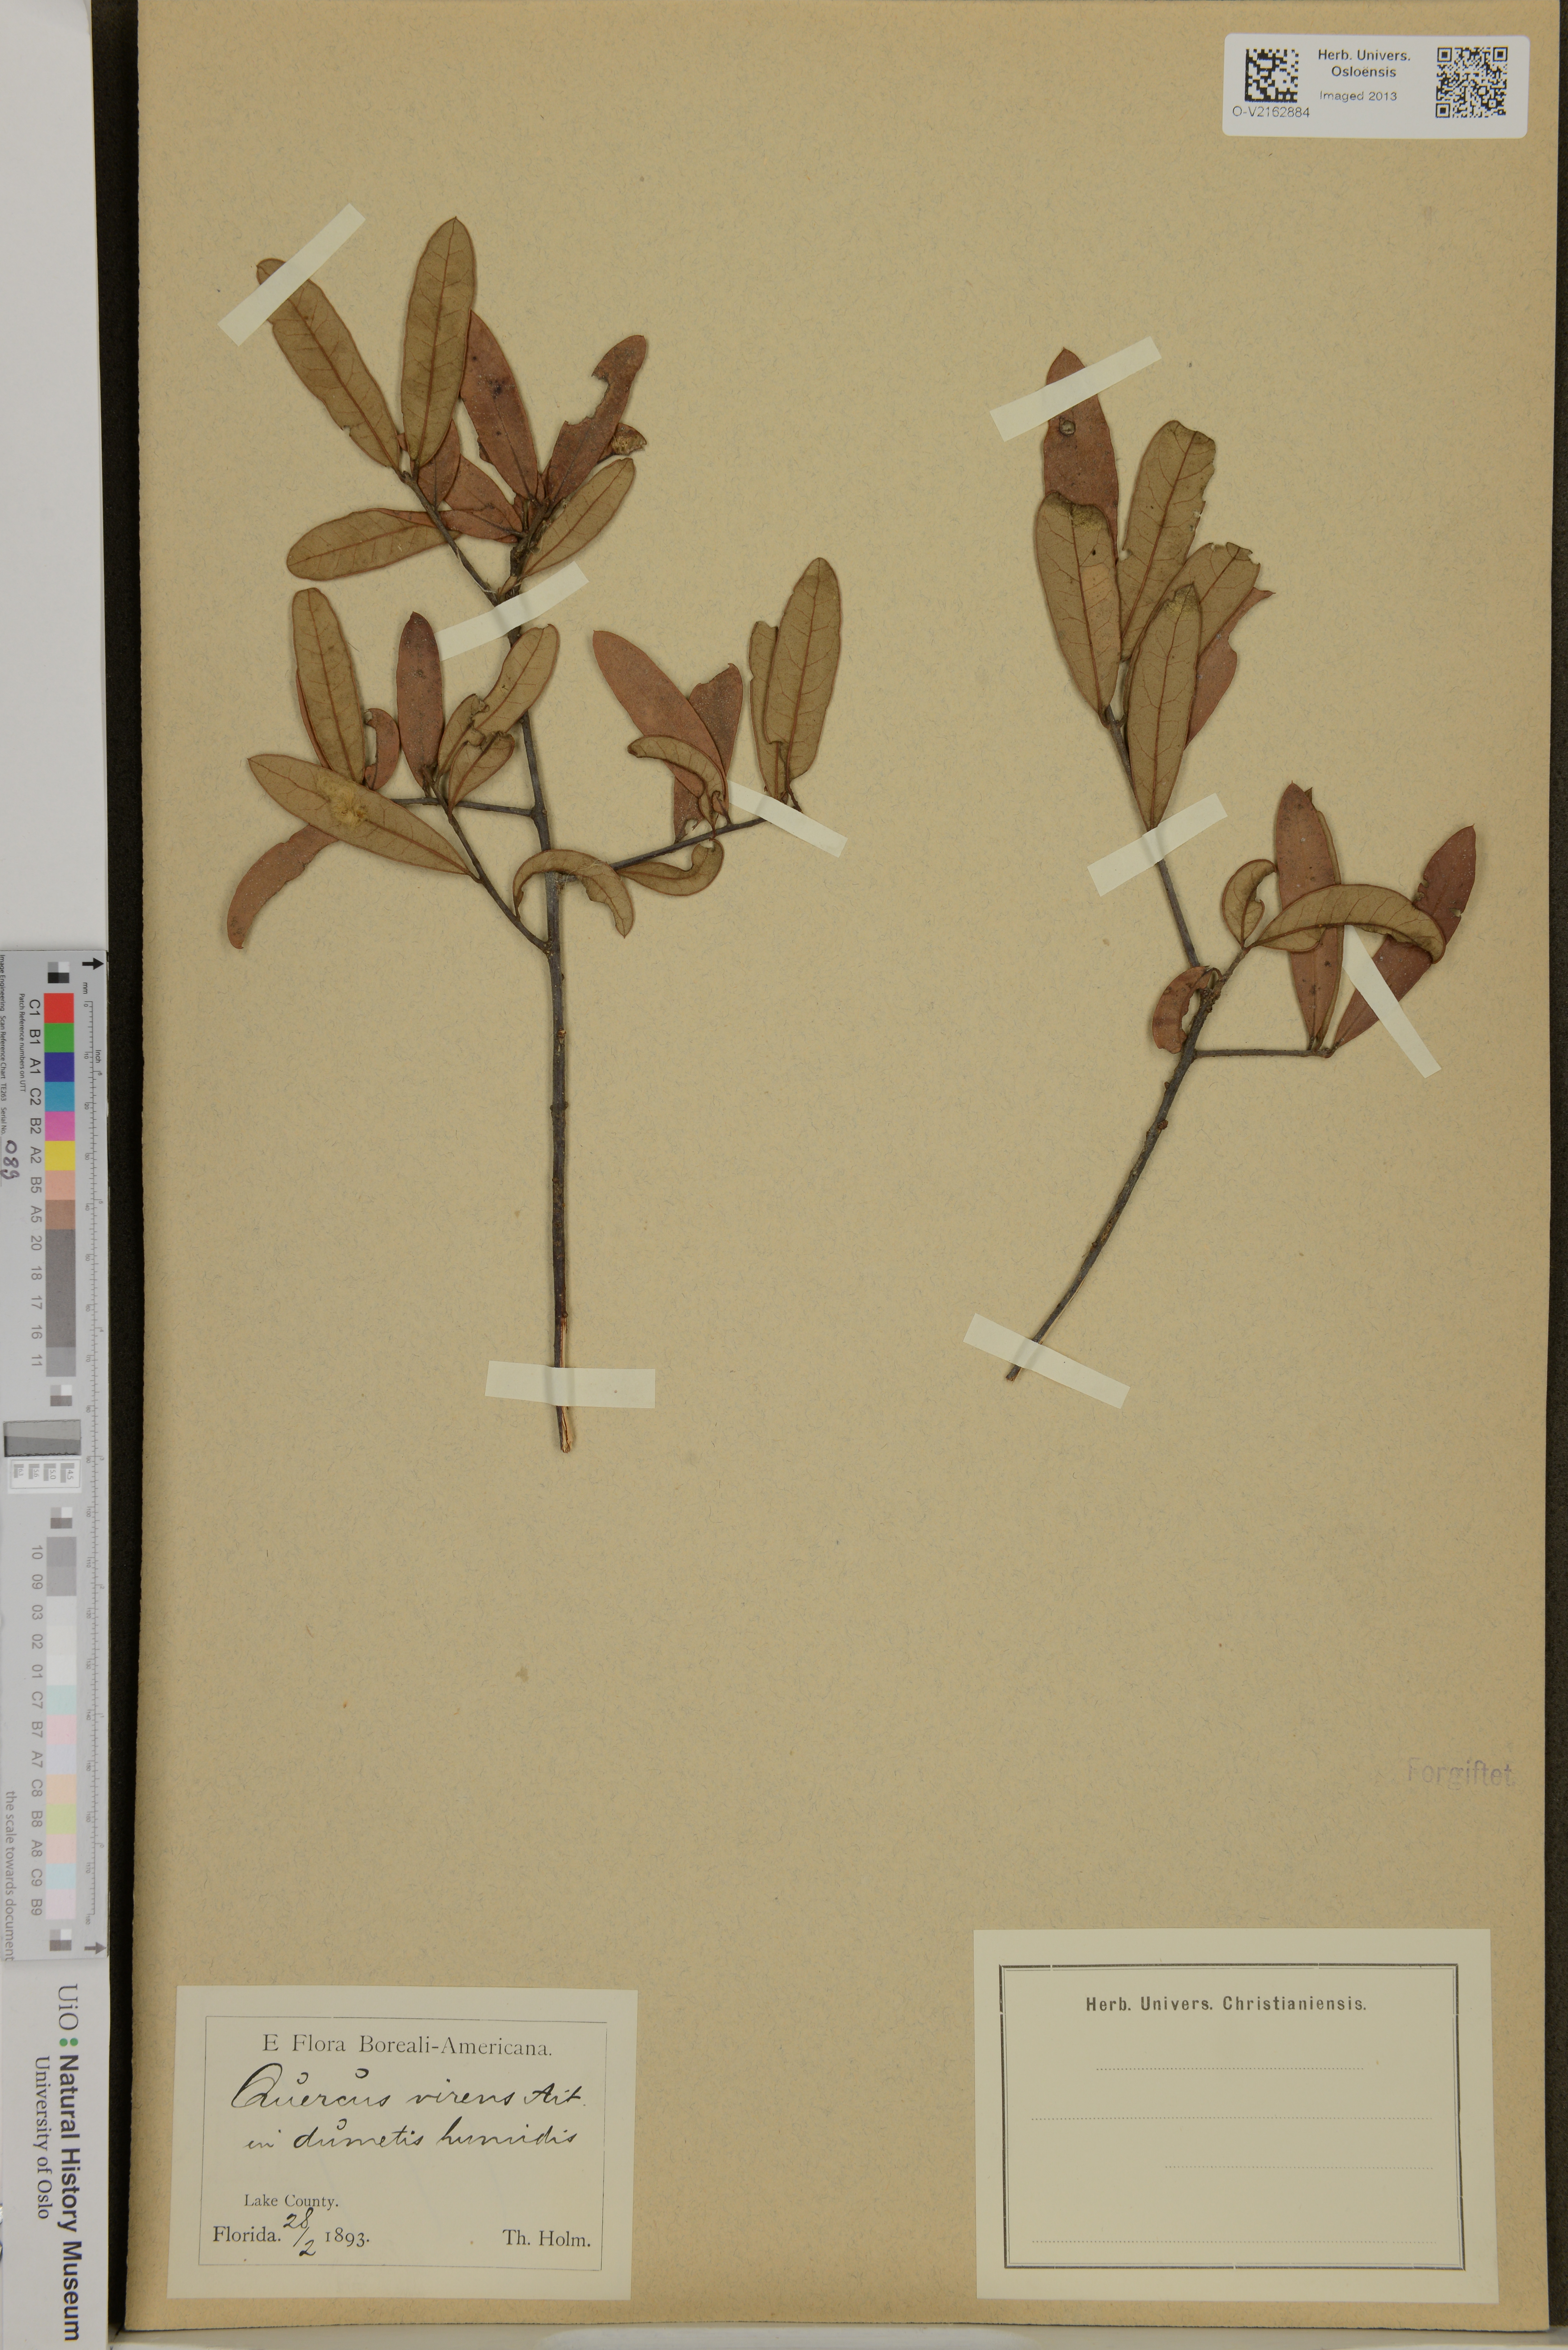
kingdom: Plantae
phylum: Tracheophyta
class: Magnoliopsida
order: Fagales
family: Fagaceae
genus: Quercus
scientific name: Quercus virginiana
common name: Southern live oak
